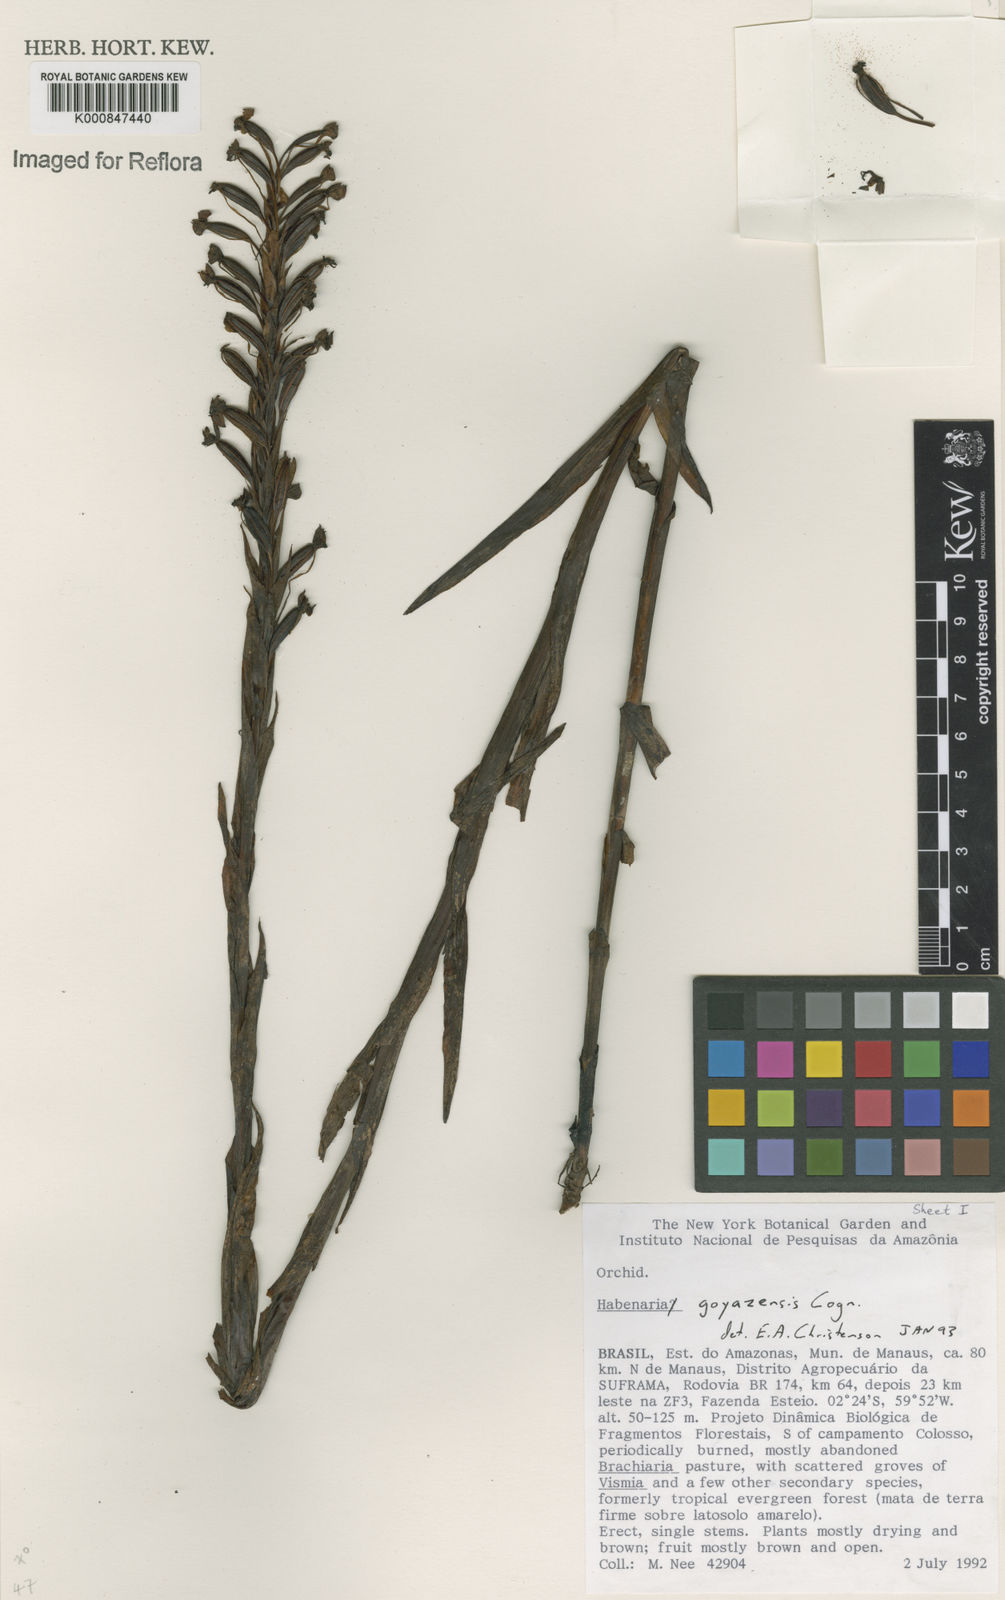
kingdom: Plantae
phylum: Tracheophyta
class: Liliopsida
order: Asparagales
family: Orchidaceae
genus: Habenaria
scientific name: Habenaria goyazensis
